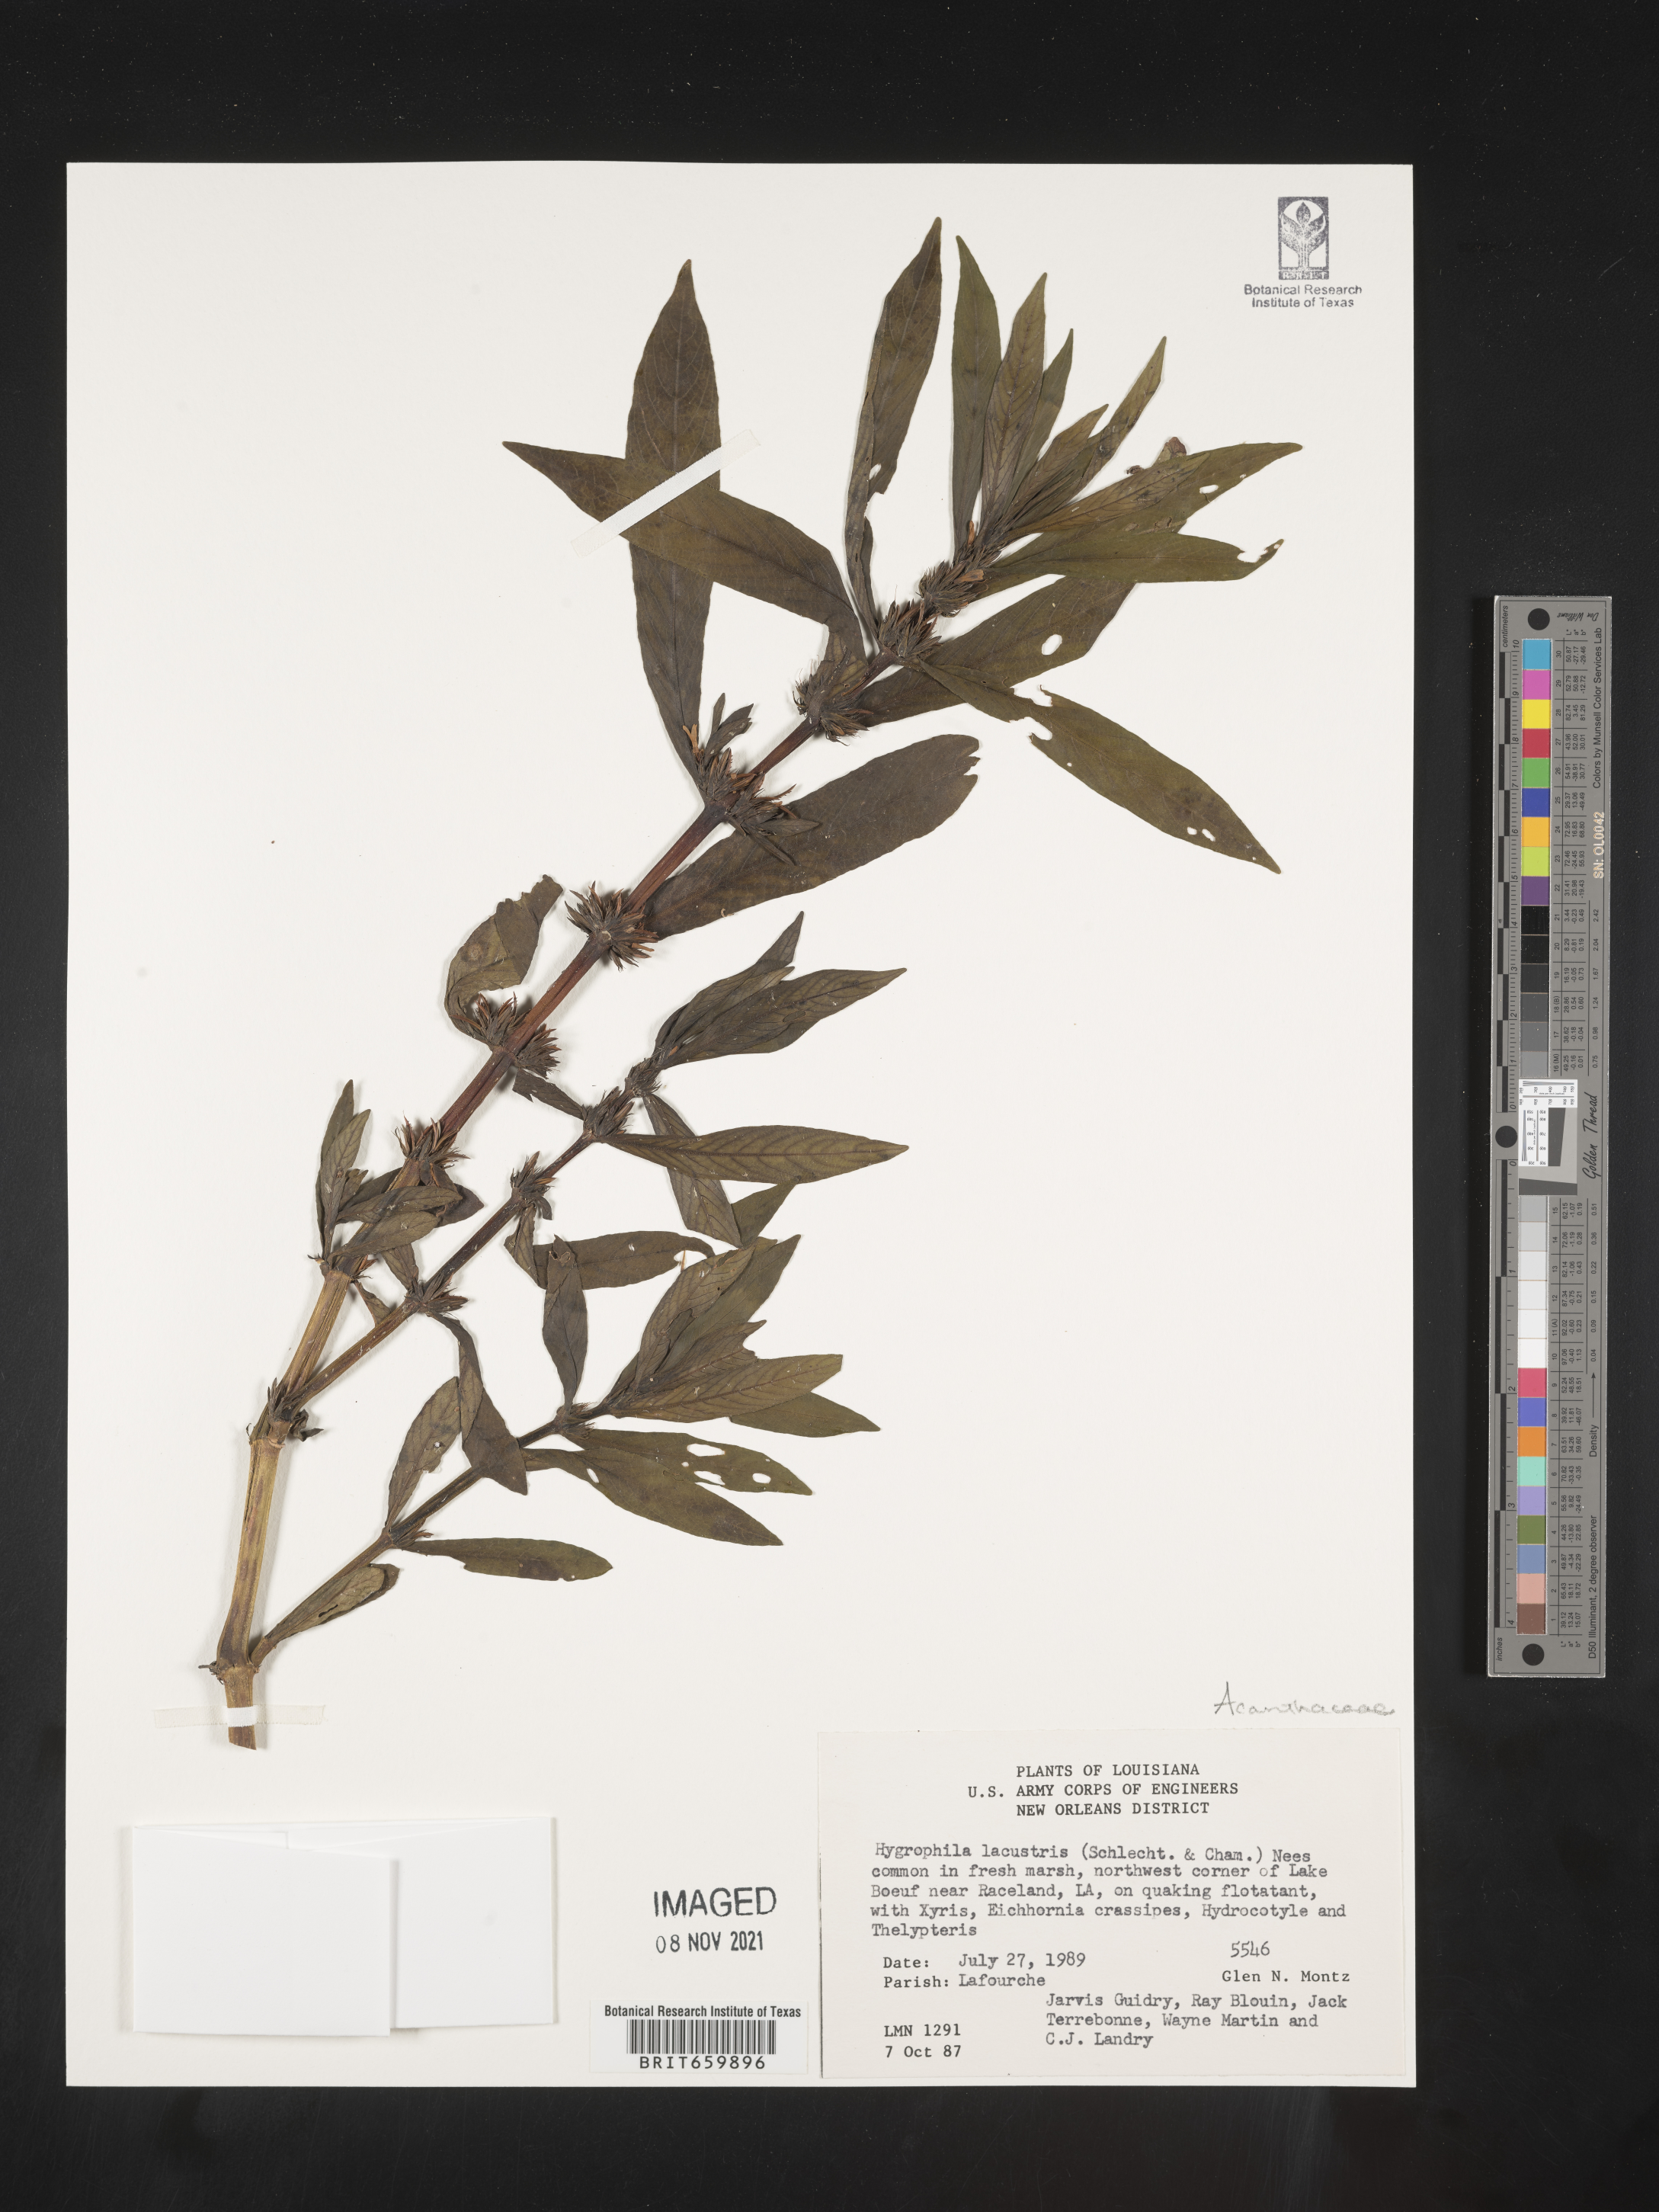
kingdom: Plantae
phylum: Tracheophyta
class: Magnoliopsida
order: Lamiales
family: Acanthaceae
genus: Hygrophila
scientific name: Hygrophila costata
